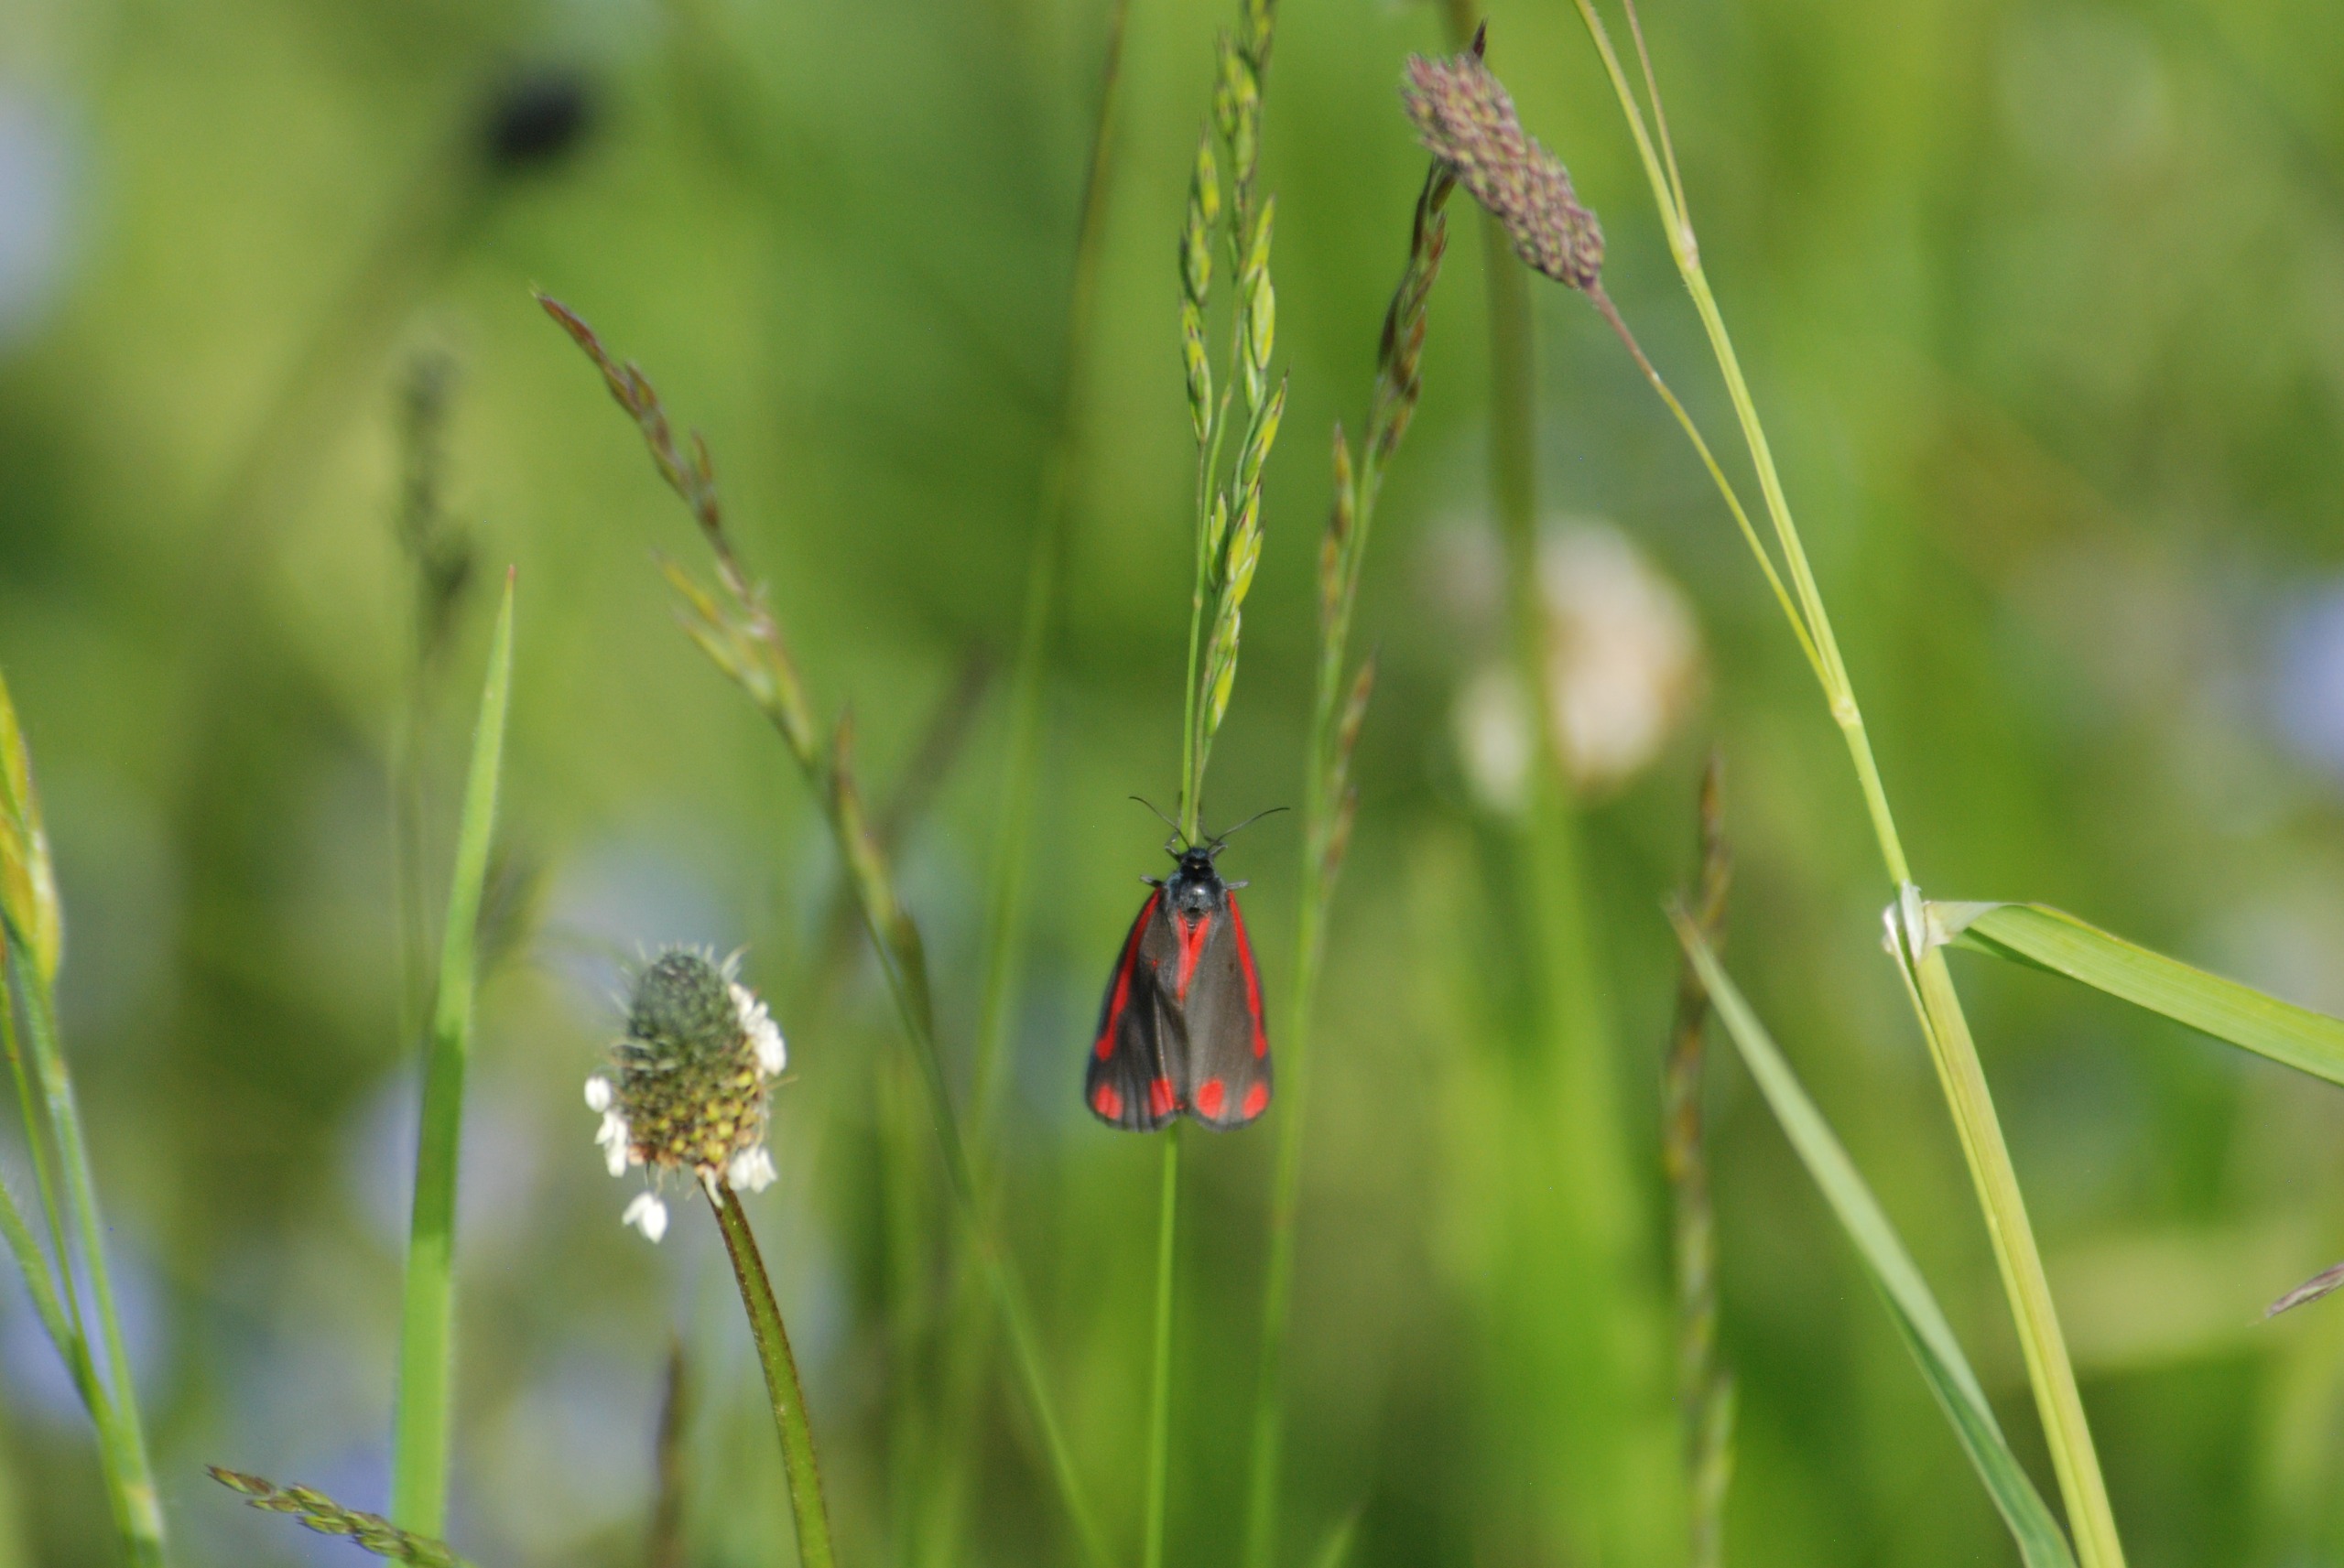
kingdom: Animalia
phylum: Arthropoda
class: Insecta
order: Lepidoptera
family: Erebidae
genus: Tyria
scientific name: Tyria jacobaeae
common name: Blodplet
